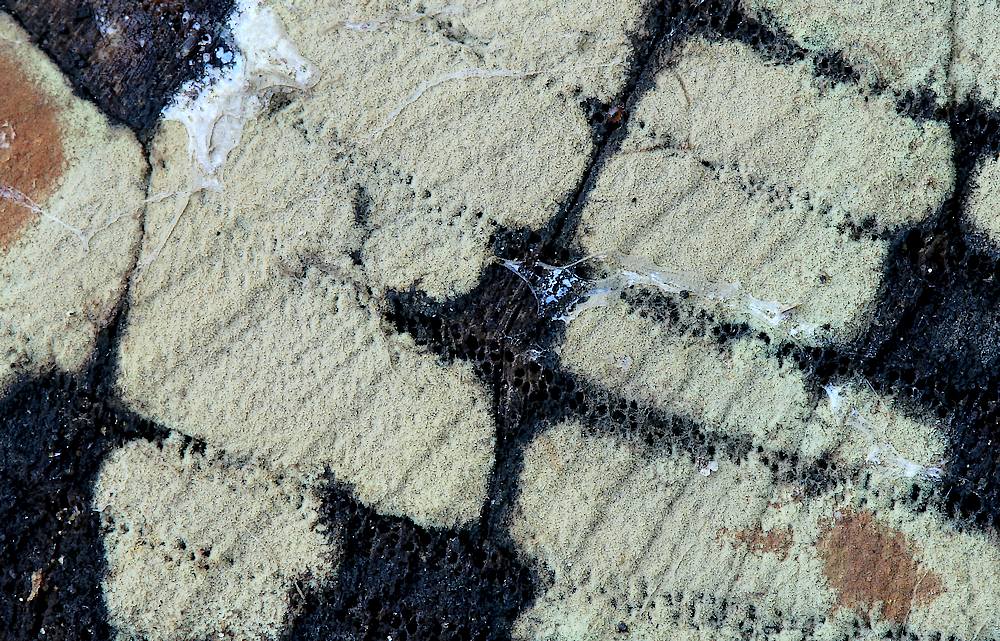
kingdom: Fungi
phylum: Ascomycota
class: Sordariomycetes
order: Xylariales
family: Hypoxylaceae
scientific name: Hypoxylaceae
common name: kulbærfamilien
